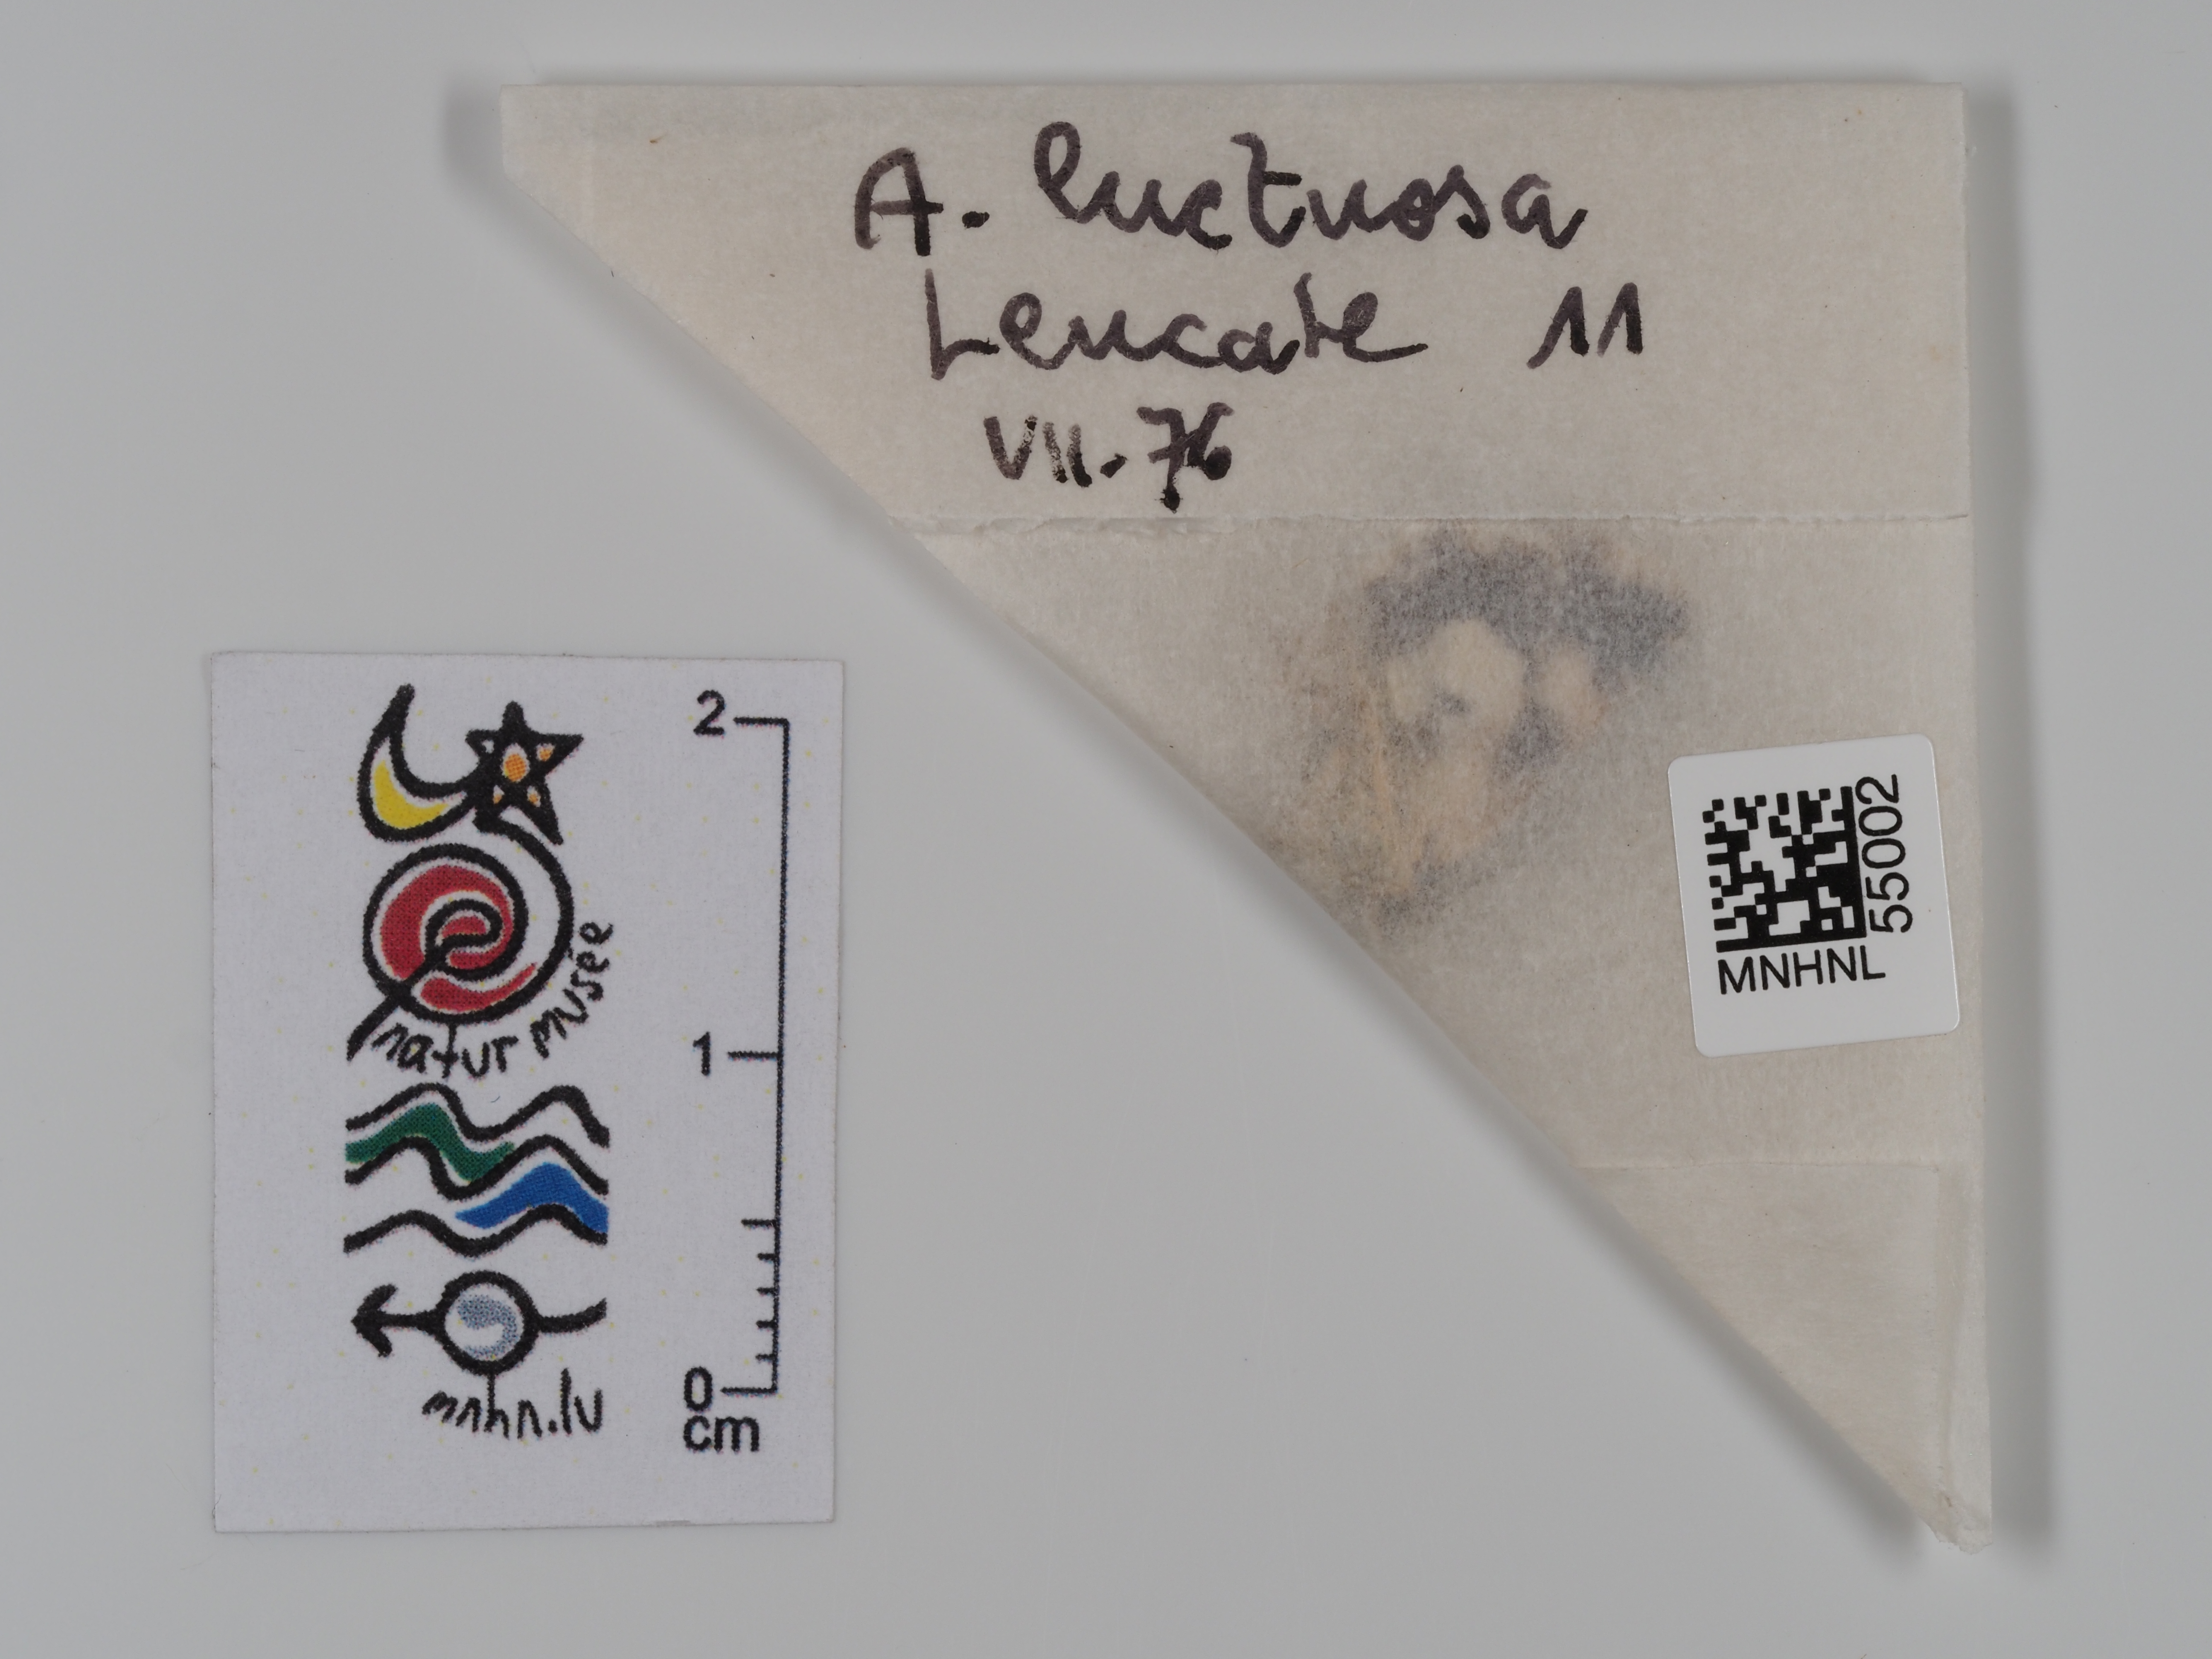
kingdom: Animalia
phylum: Arthropoda
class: Insecta
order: Lepidoptera
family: Erebidae
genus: Tyta
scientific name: Tyta luctuosa
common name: Four-spotted
